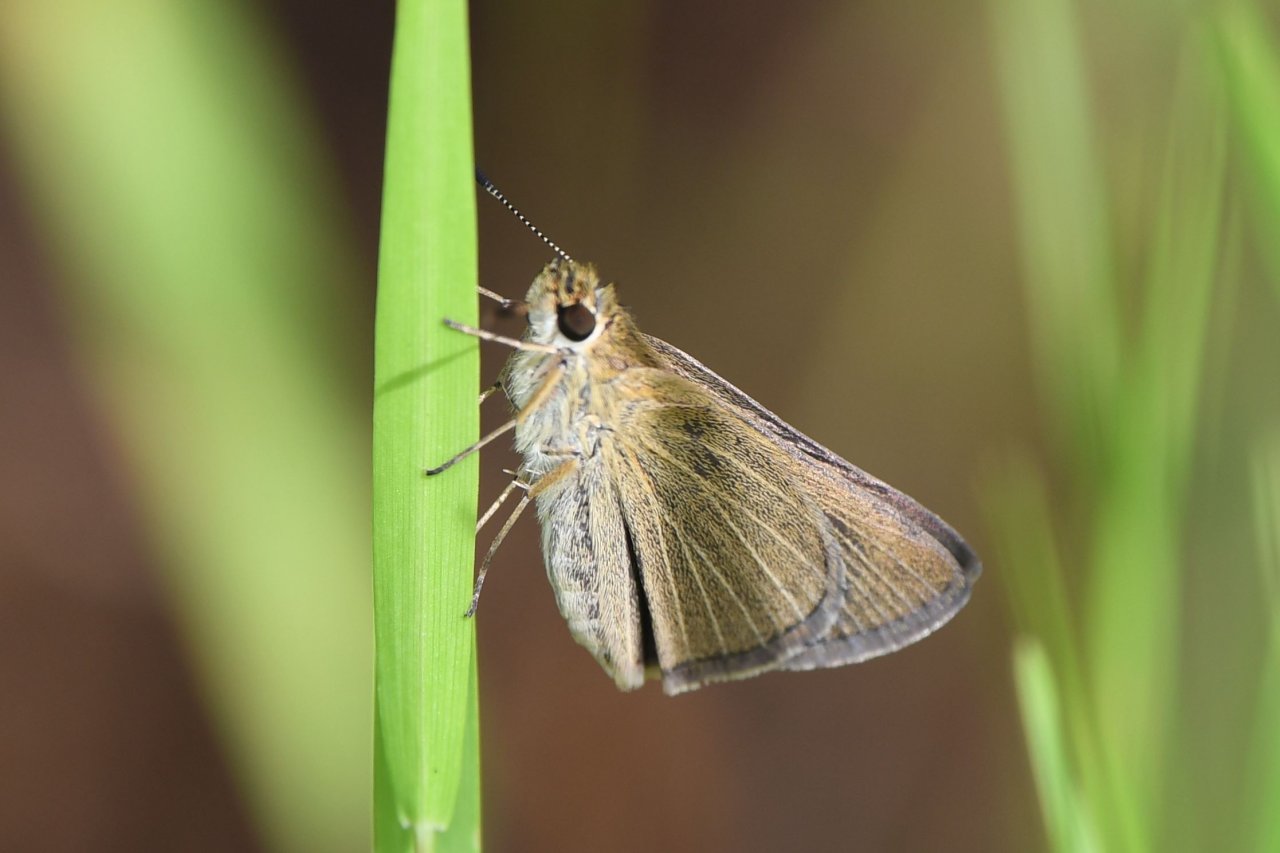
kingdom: Animalia
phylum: Arthropoda
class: Insecta
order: Lepidoptera
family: Hesperiidae
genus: Nastra
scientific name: Nastra lherminier
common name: Swarthy Skipper
